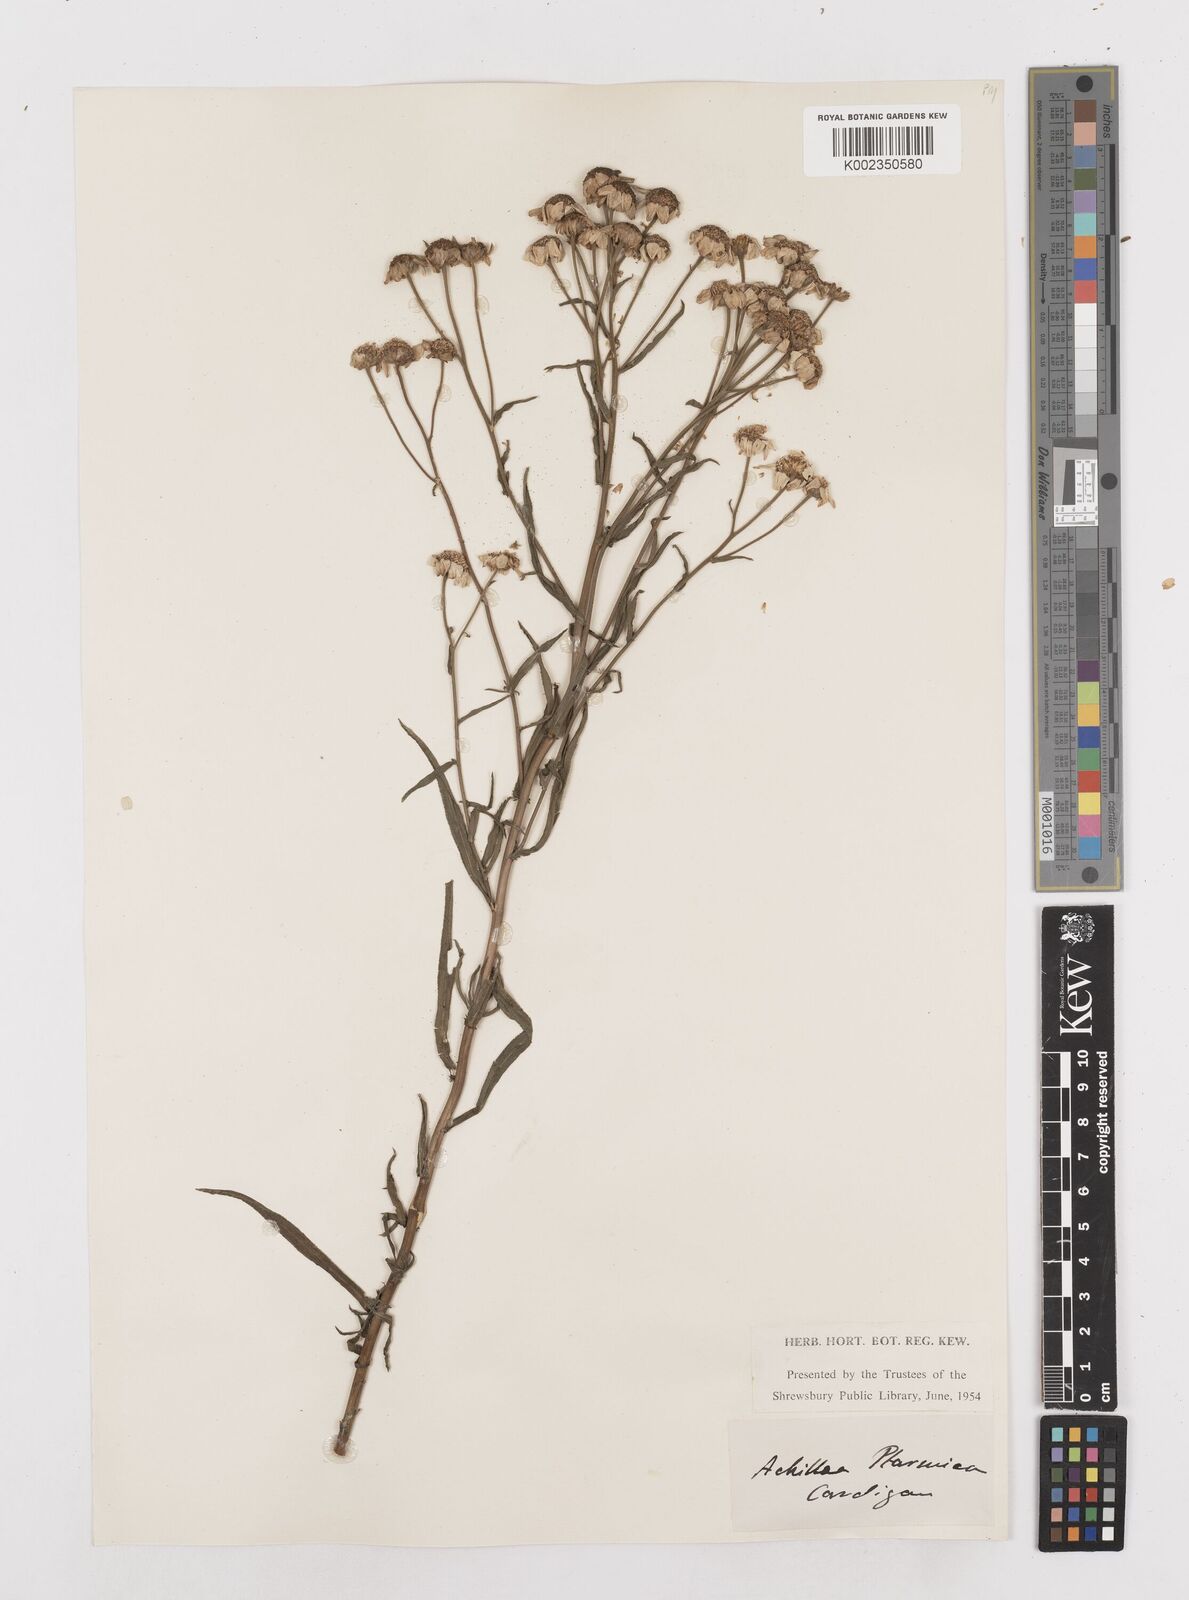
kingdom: Plantae
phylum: Tracheophyta
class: Magnoliopsida
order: Asterales
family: Asteraceae
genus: Achillea
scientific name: Achillea
